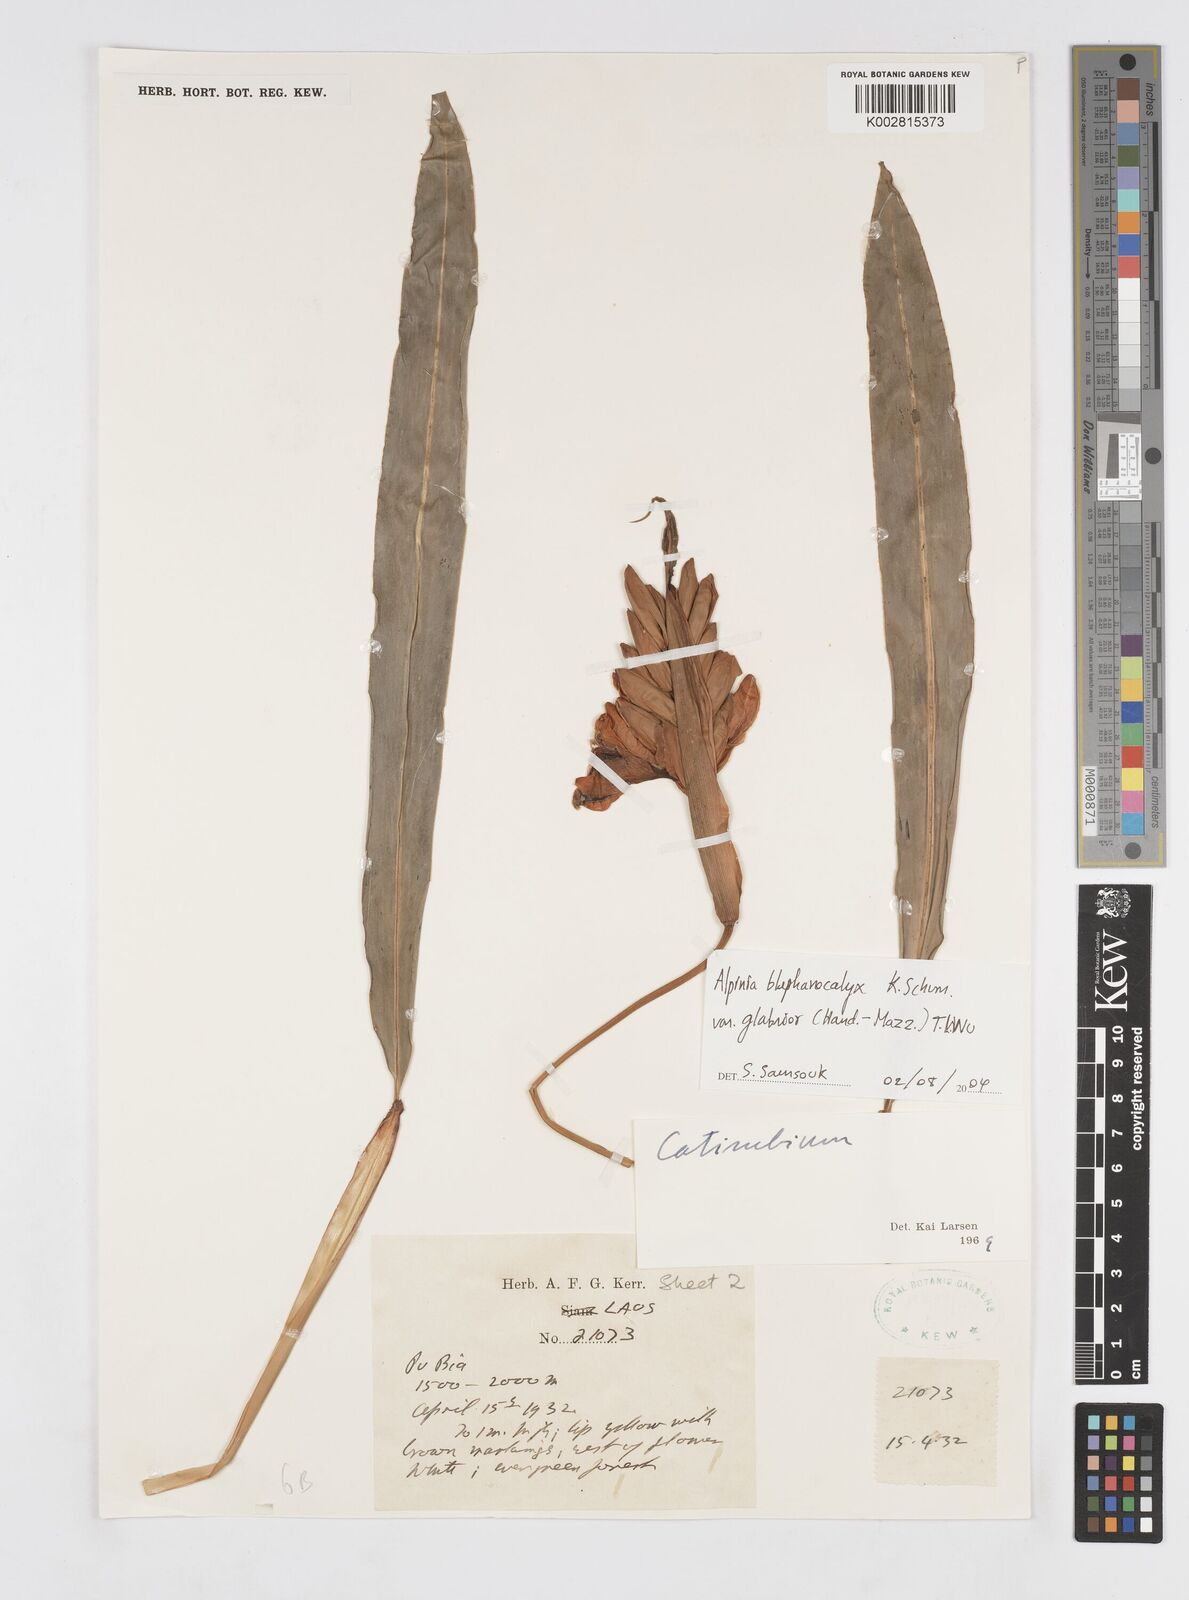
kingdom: Plantae
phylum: Tracheophyta
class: Liliopsida
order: Zingiberales
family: Zingiberaceae
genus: Alpinia
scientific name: Alpinia roxburghii
